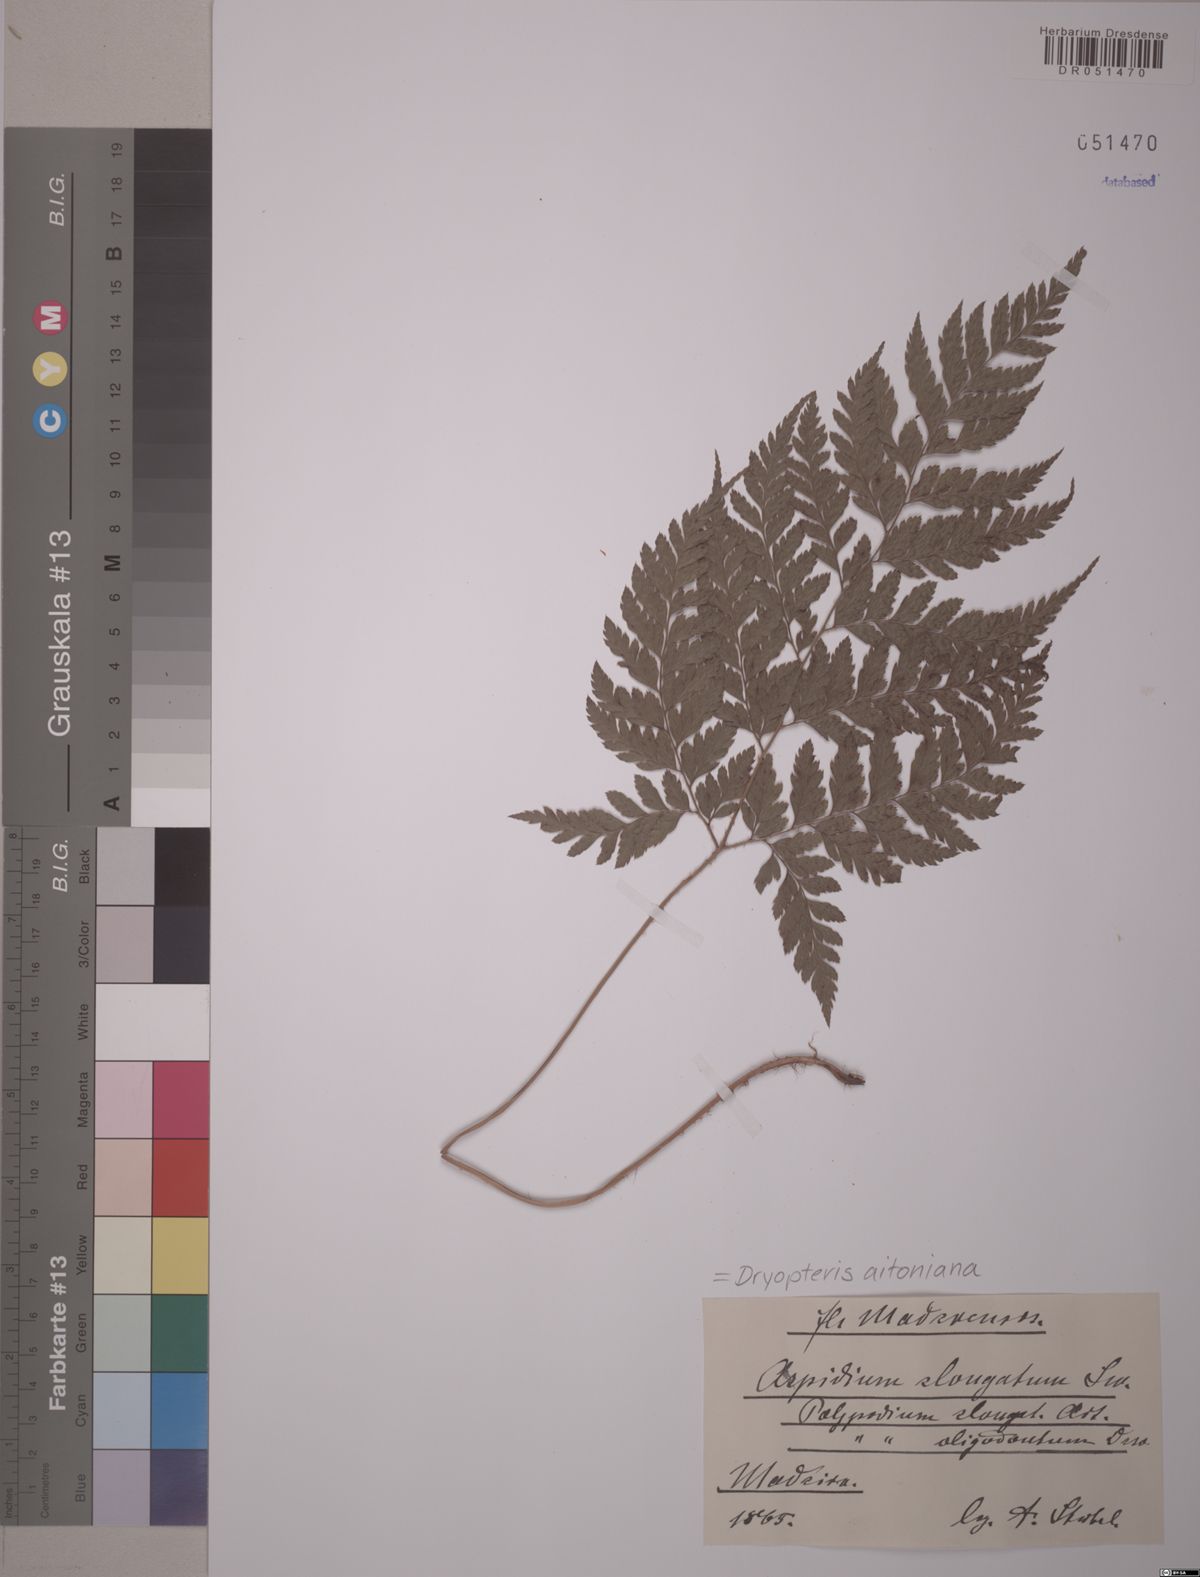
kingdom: Plantae
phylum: Tracheophyta
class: Polypodiopsida
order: Polypodiales
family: Dryopteridaceae
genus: Dryopteris
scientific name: Dryopteris aitoniana
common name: Aiton's buckler-fern
